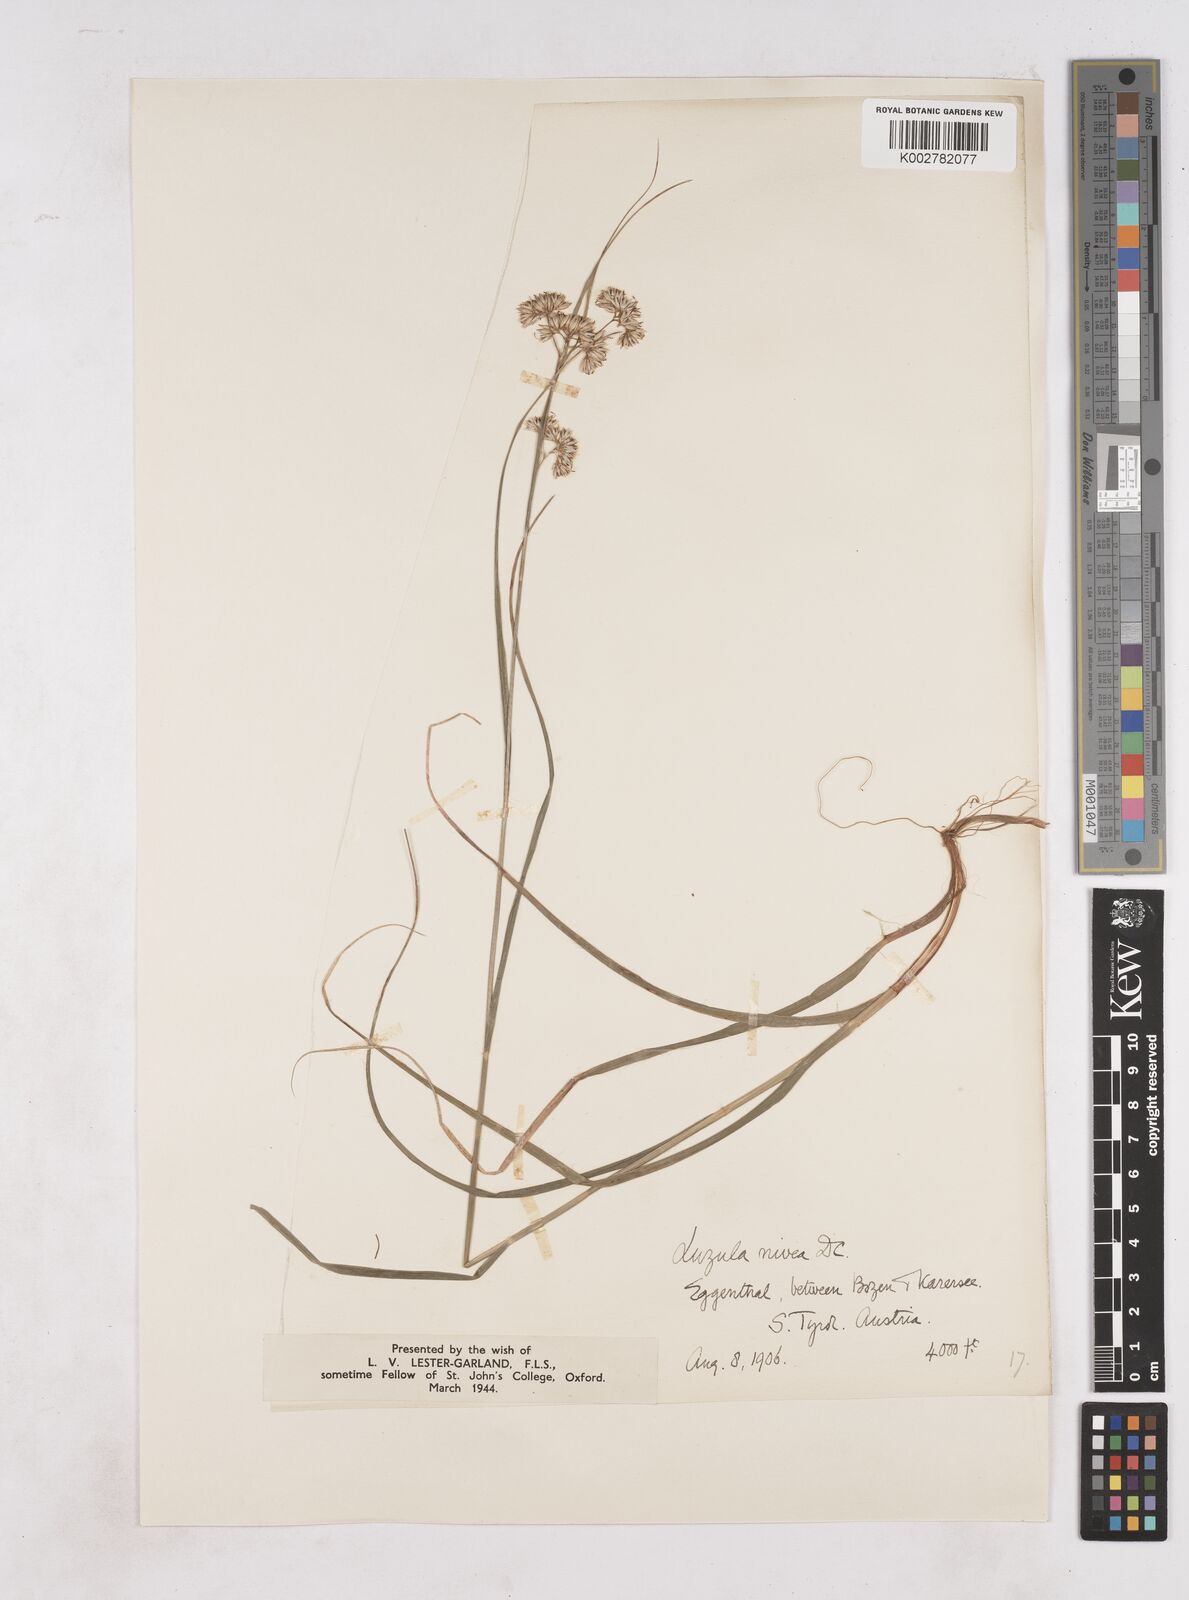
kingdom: Plantae
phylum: Tracheophyta
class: Liliopsida
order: Poales
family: Juncaceae
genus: Luzula
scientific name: Luzula nivea
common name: Snow-white wood-rush
